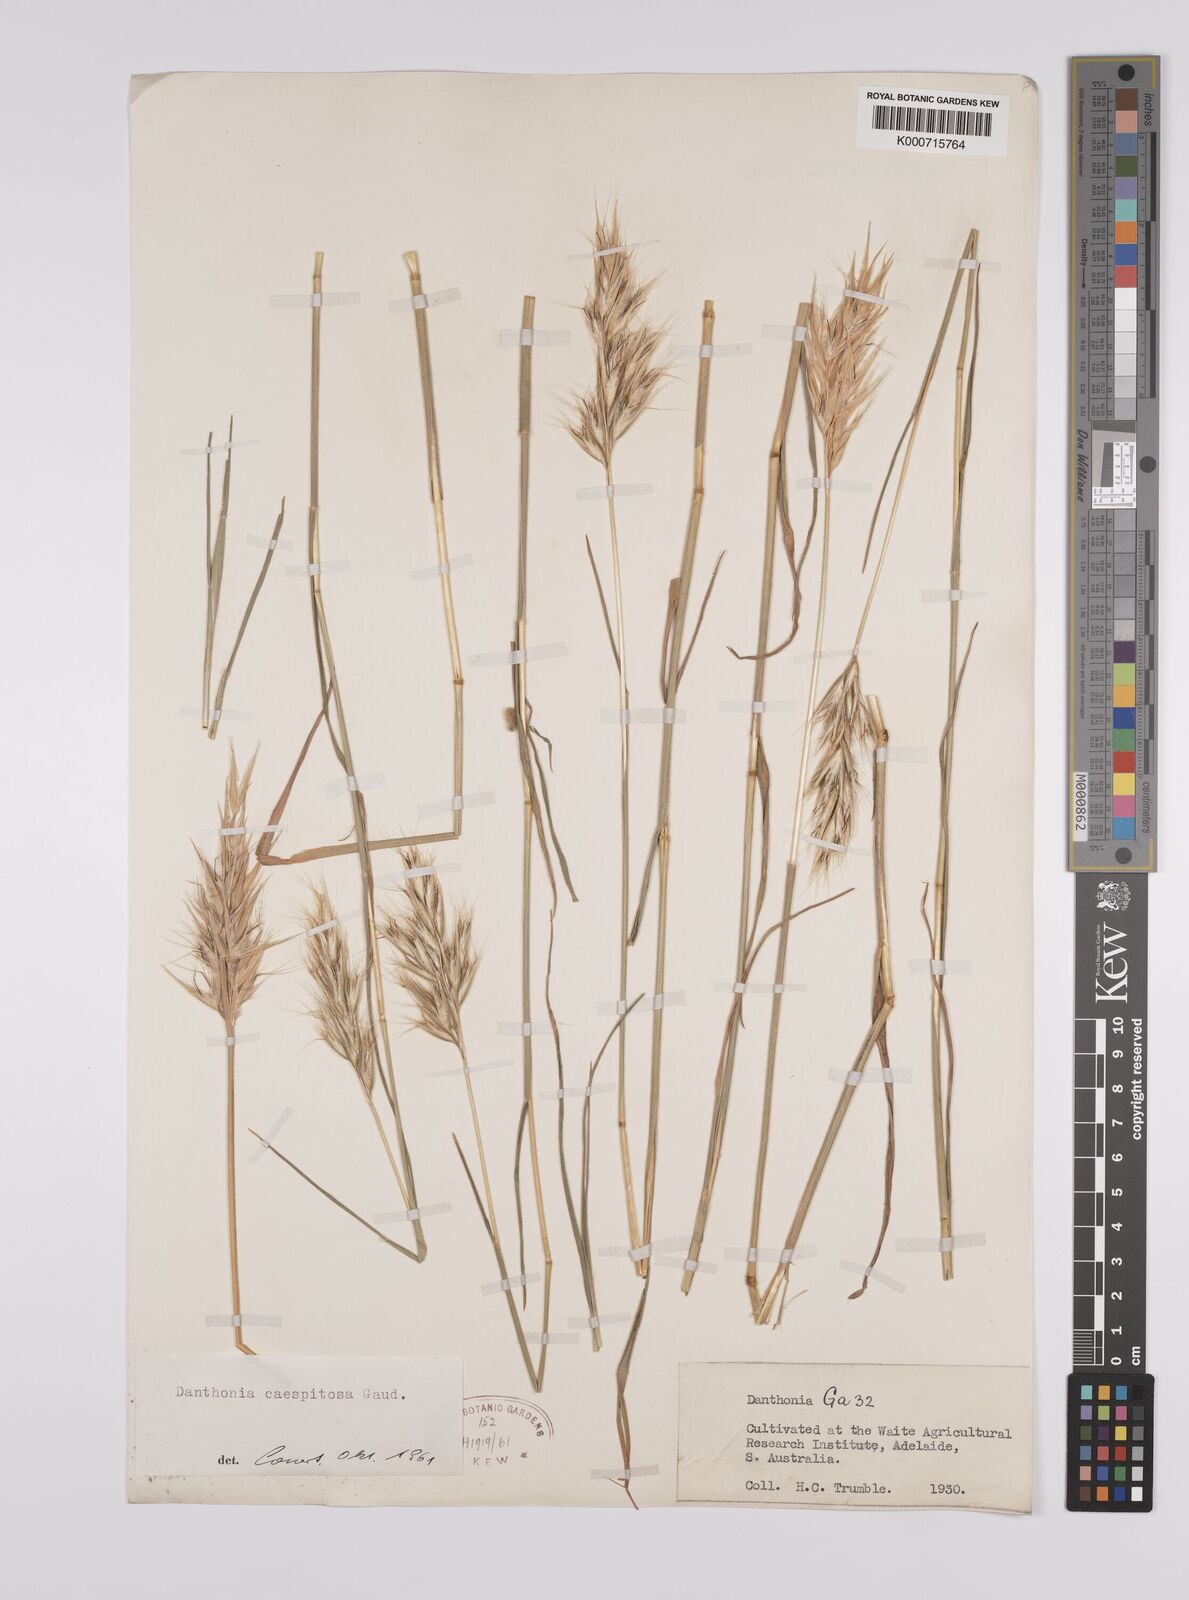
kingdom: Plantae
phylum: Tracheophyta
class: Liliopsida
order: Poales
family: Poaceae
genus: Rytidosperma
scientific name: Rytidosperma caespitosum
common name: Tufted wallaby grass
